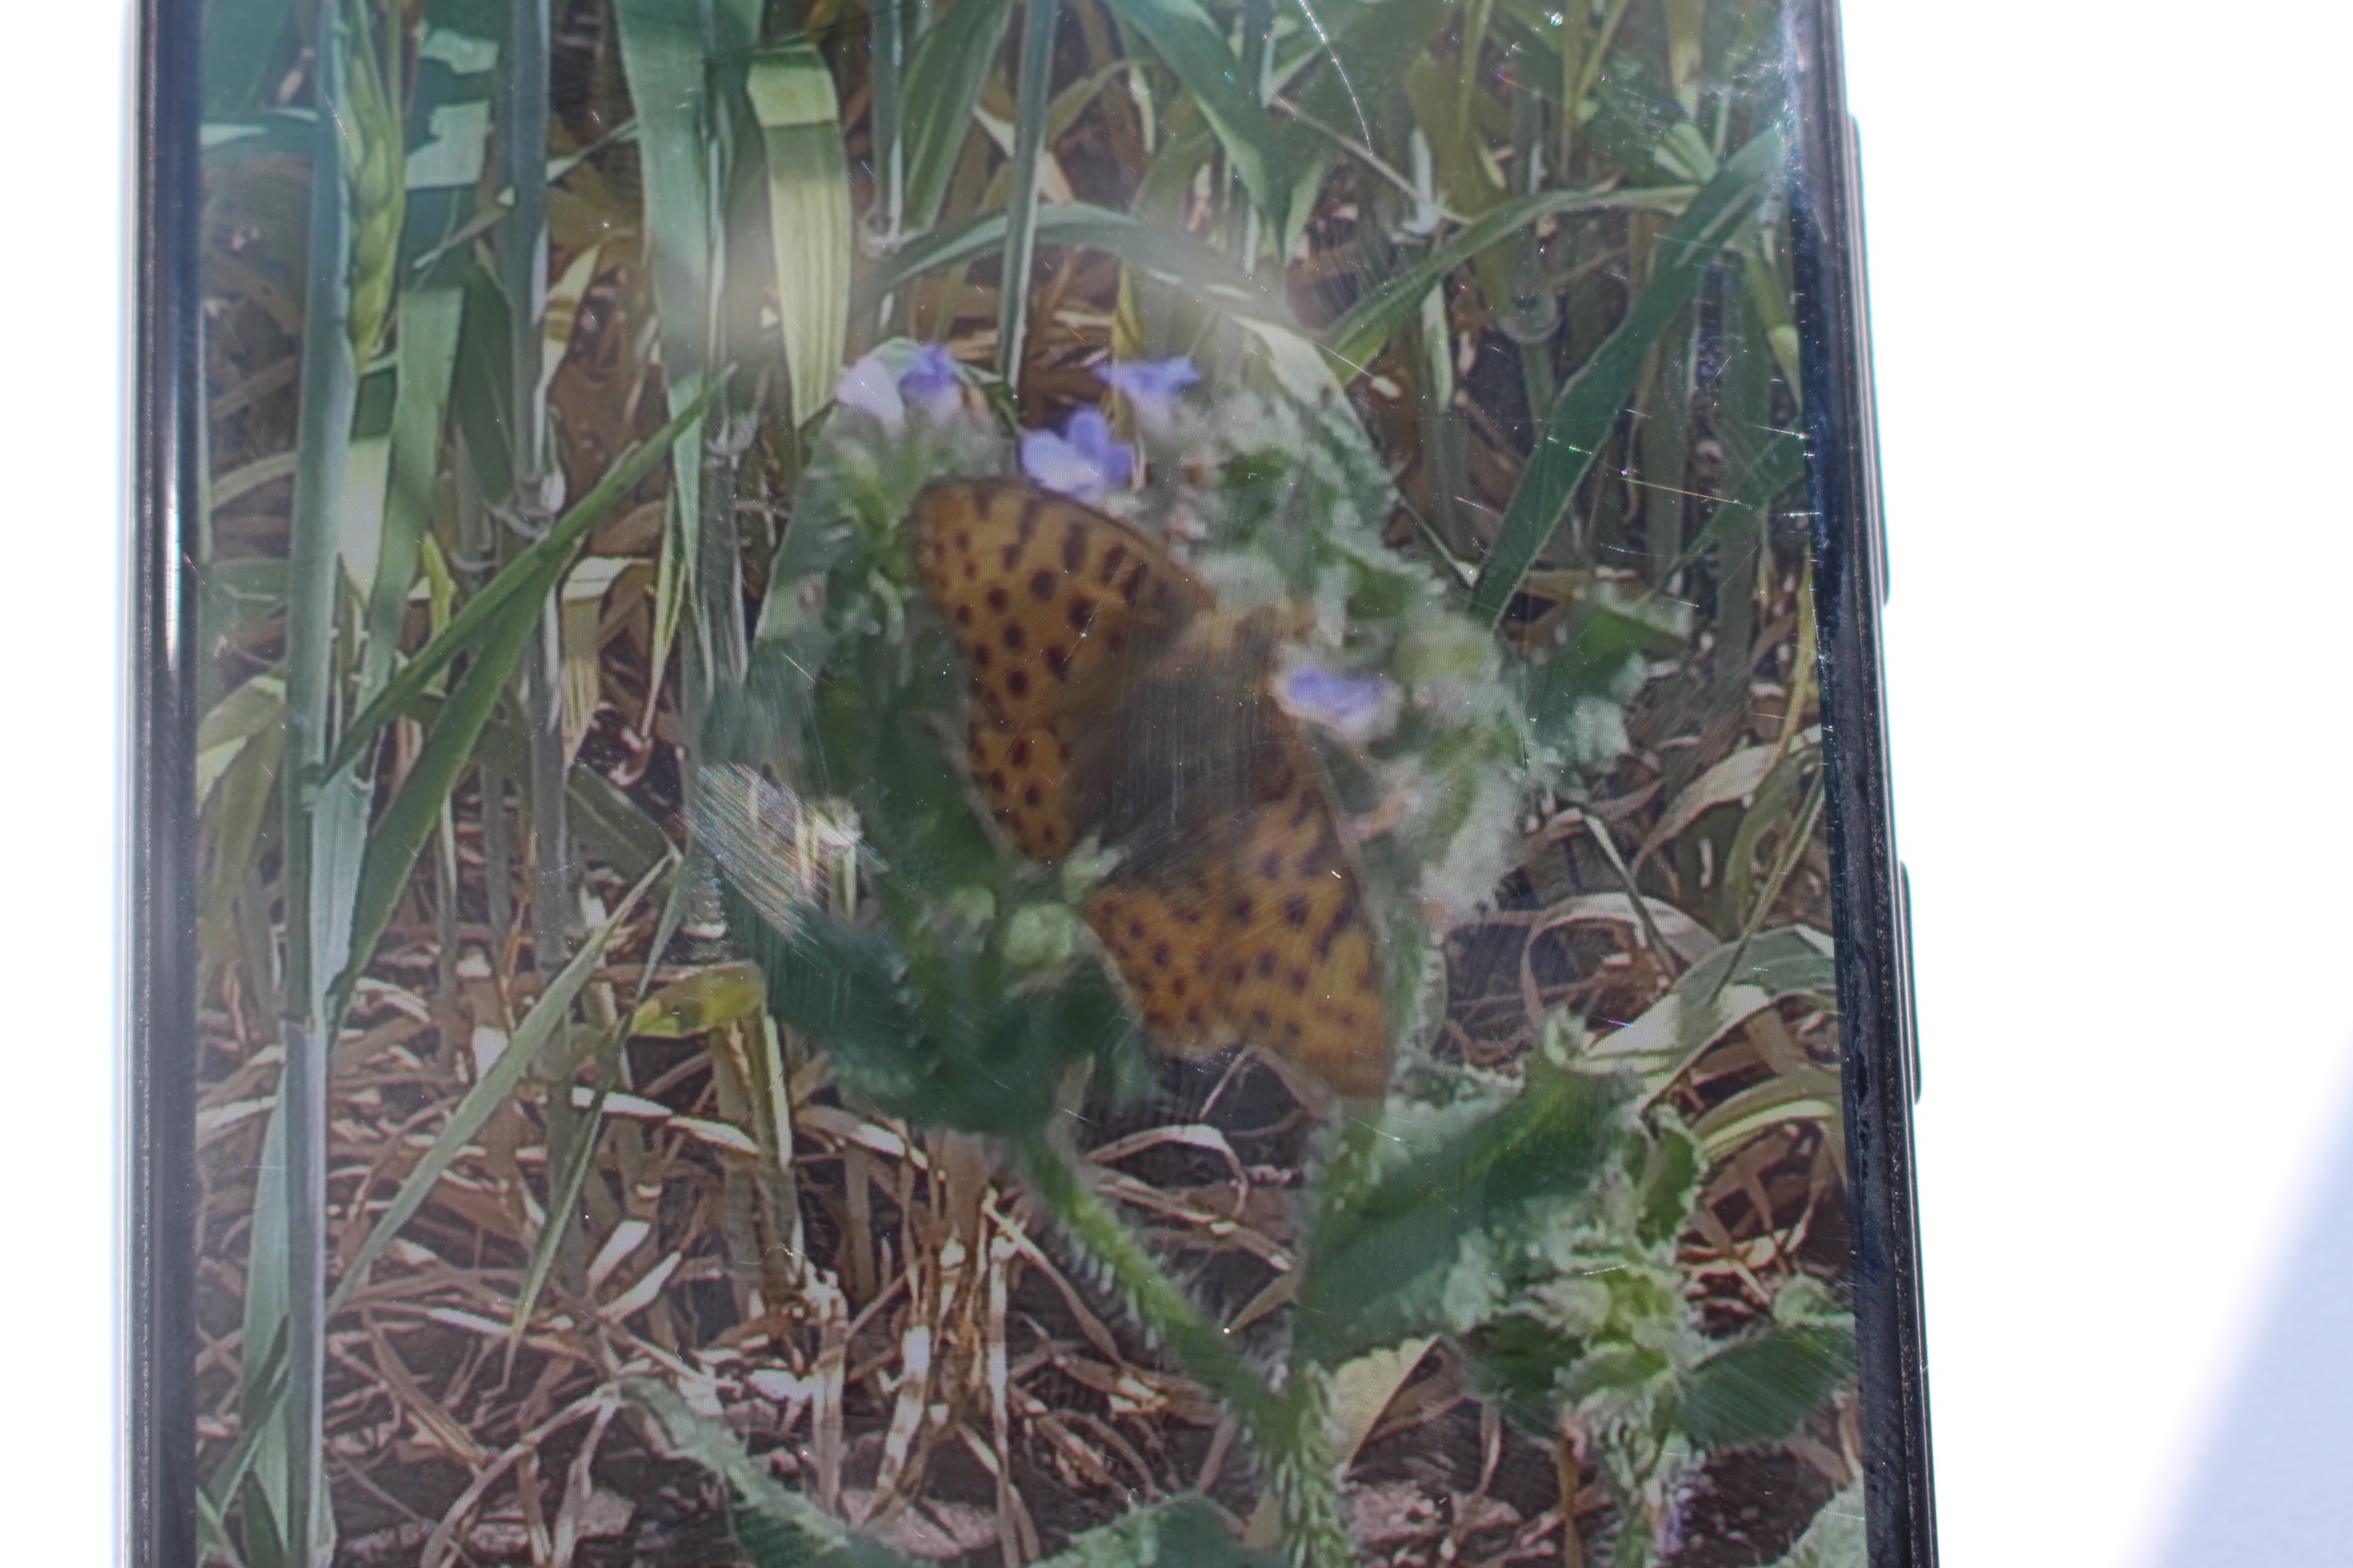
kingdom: Animalia
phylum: Arthropoda
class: Insecta
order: Lepidoptera
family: Nymphalidae
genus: Issoria
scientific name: Issoria lathonia
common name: Storplettet perlemorsommerfugl
